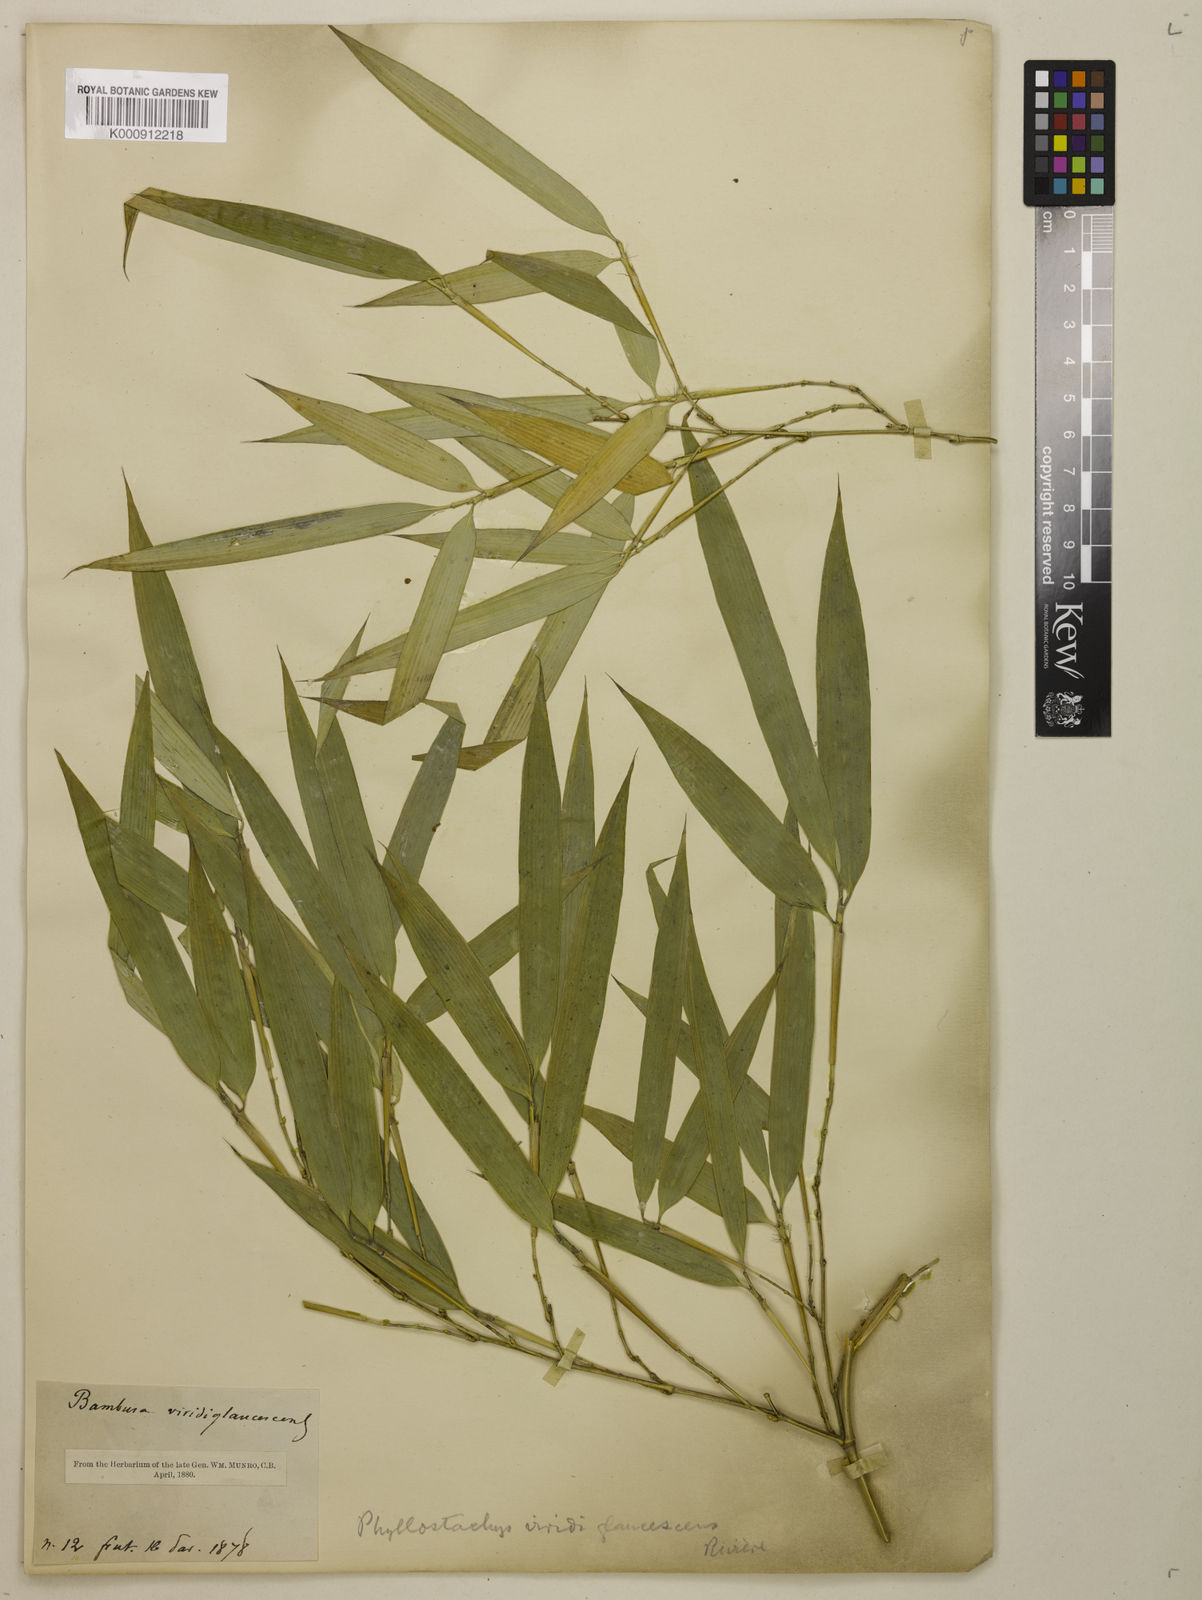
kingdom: Plantae
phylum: Tracheophyta
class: Liliopsida
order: Poales
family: Poaceae
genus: Phyllostachys
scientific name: Phyllostachys
